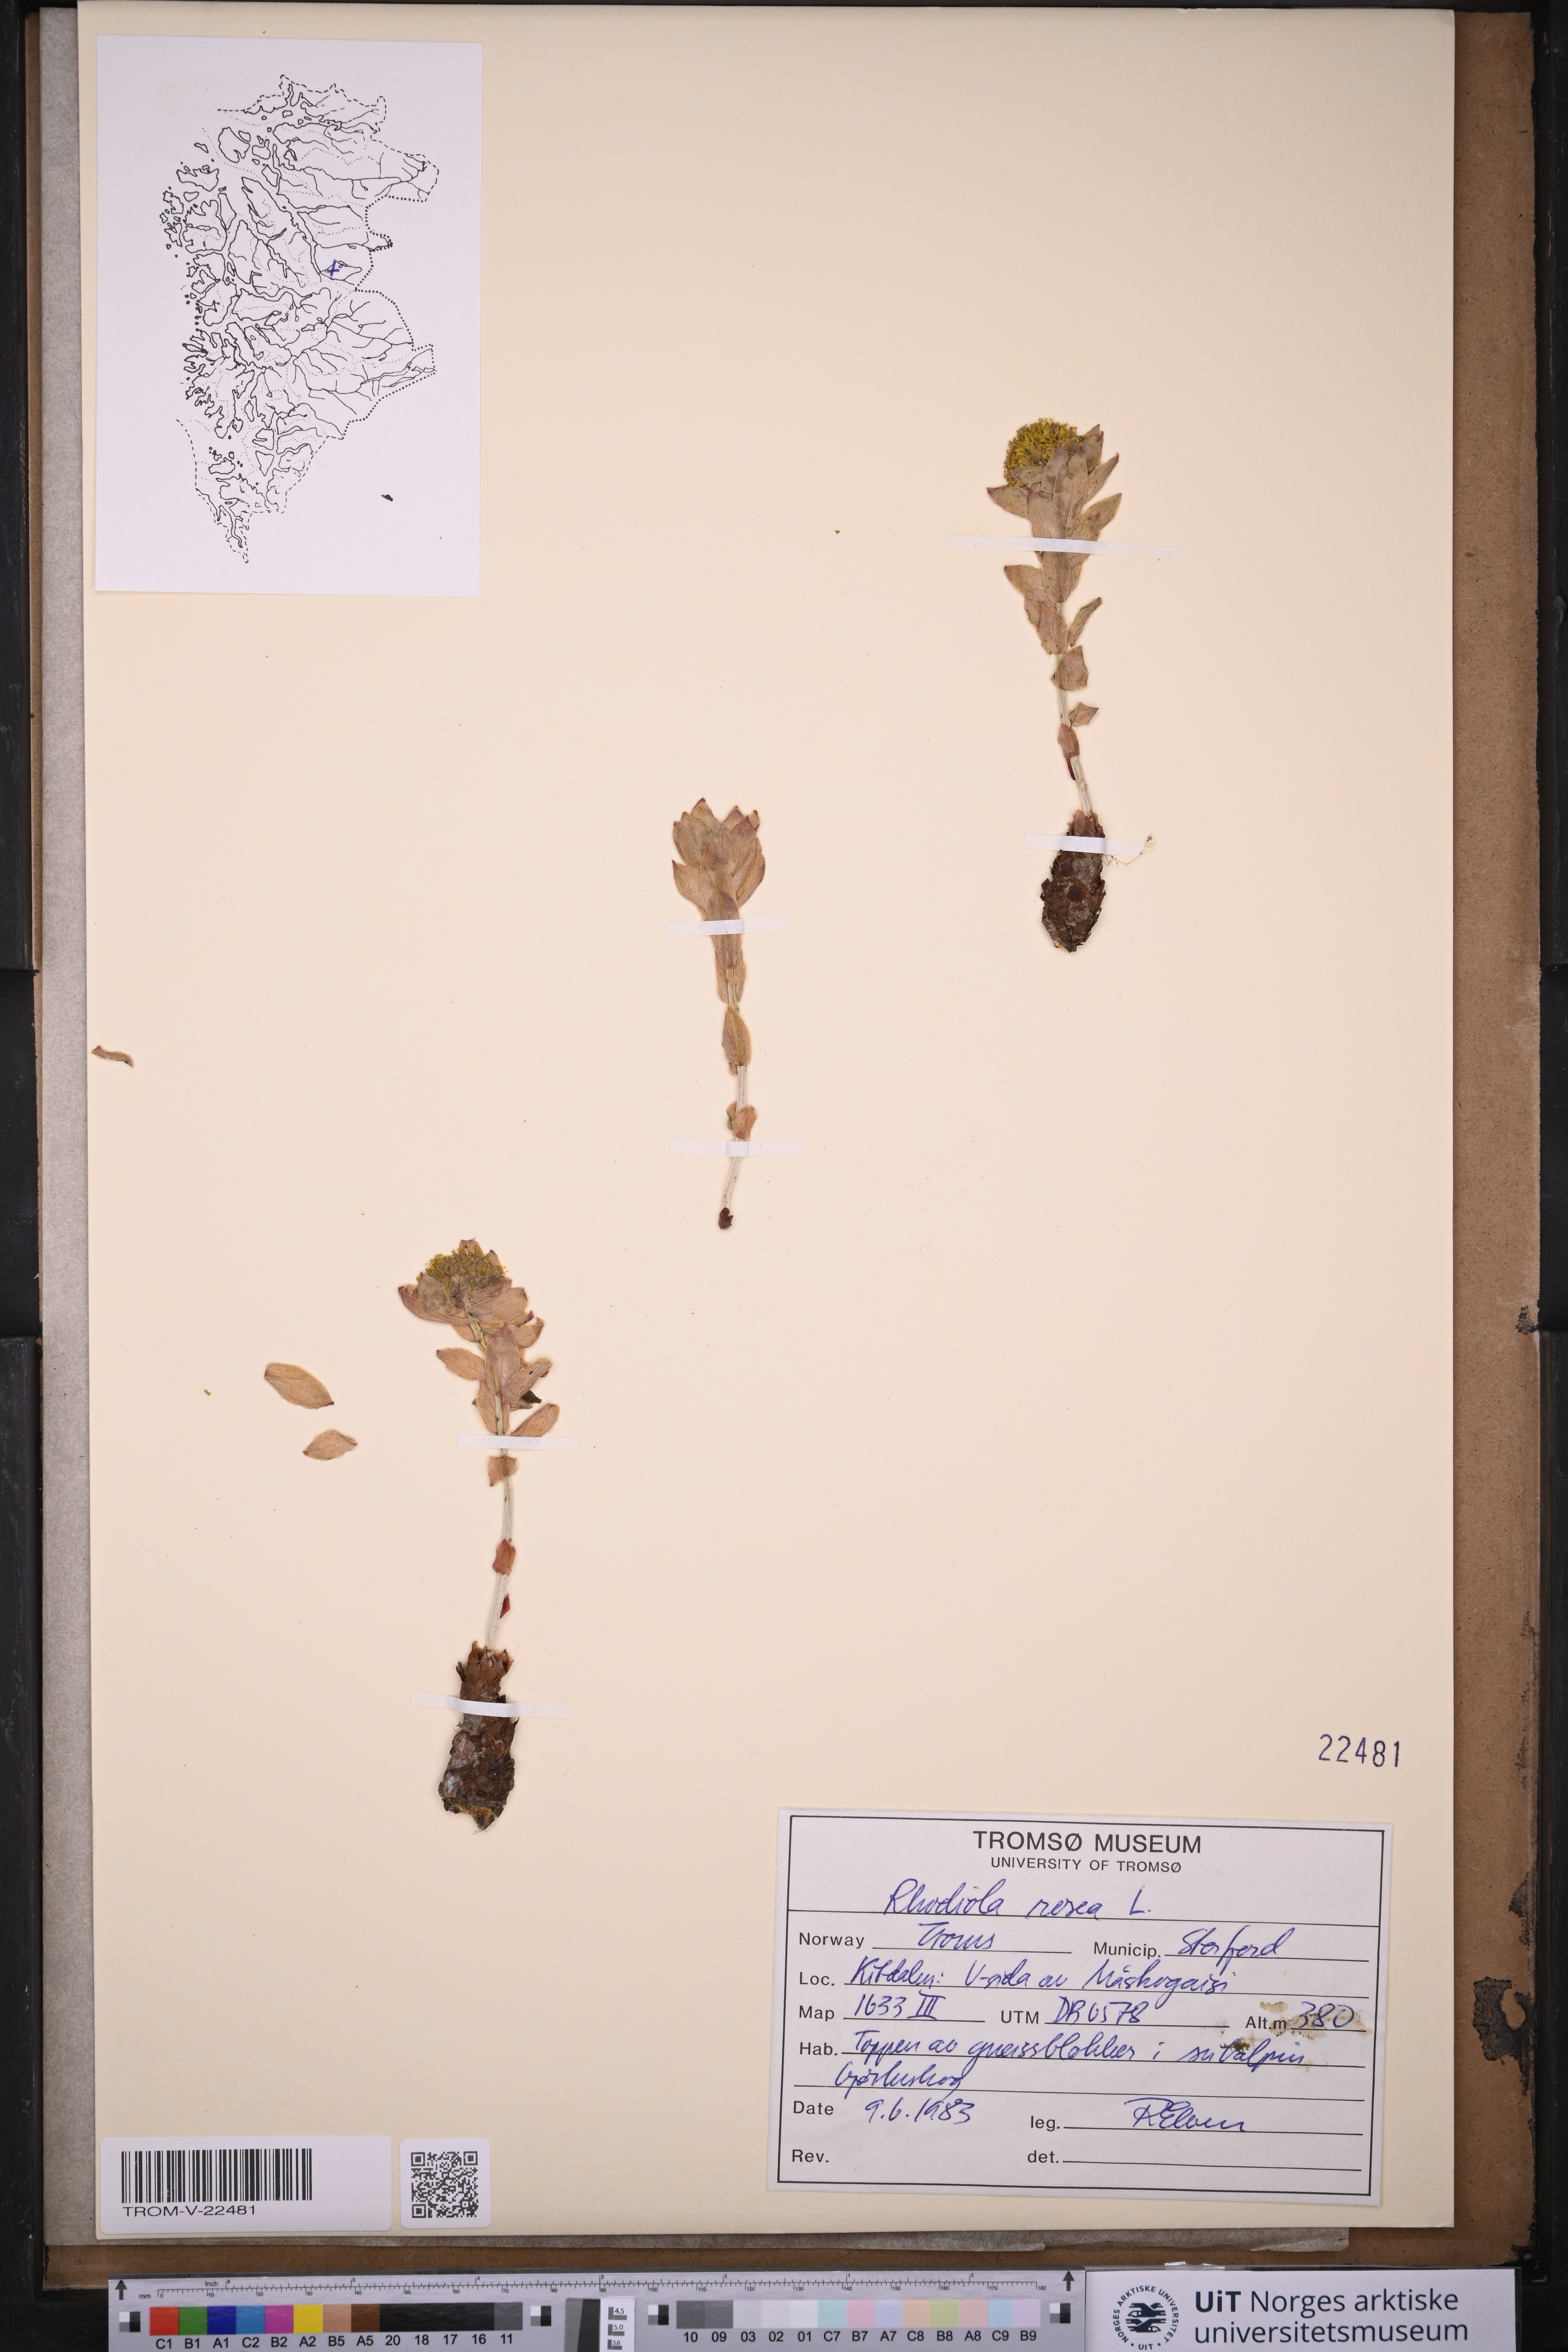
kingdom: Plantae
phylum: Tracheophyta
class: Magnoliopsida
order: Saxifragales
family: Crassulaceae
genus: Rhodiola
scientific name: Rhodiola rosea
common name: Roseroot
